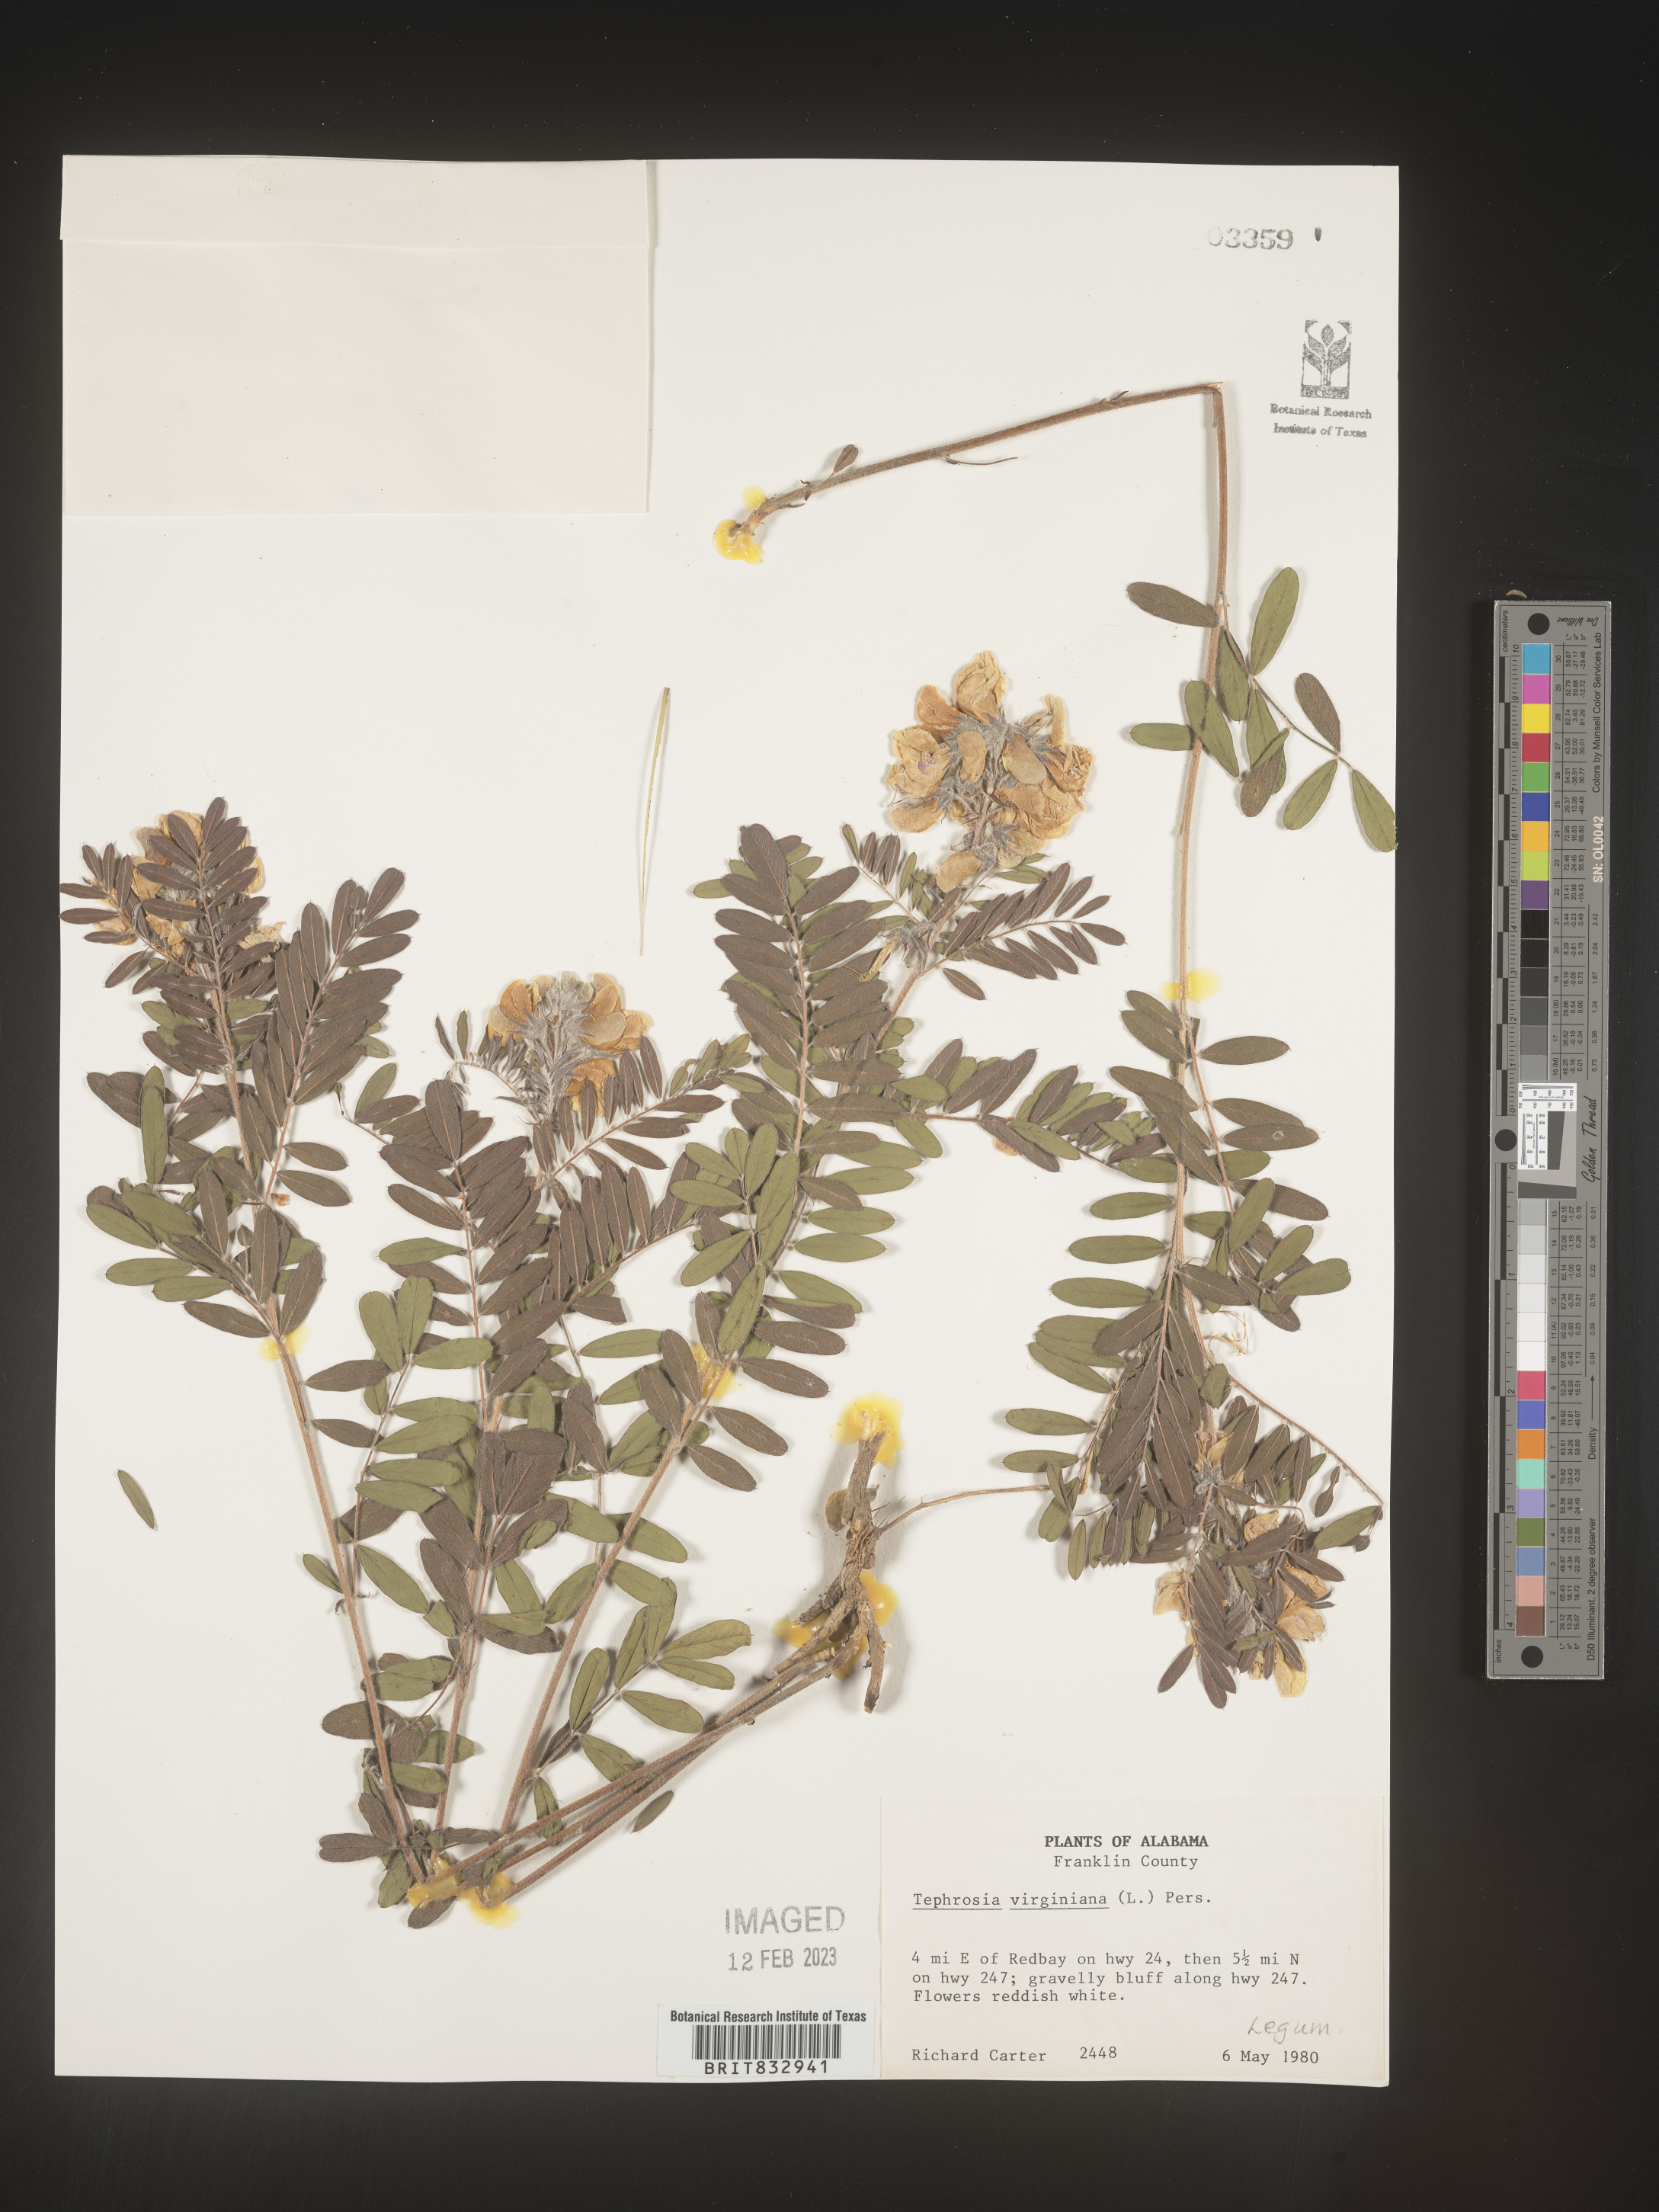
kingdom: Plantae
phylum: Tracheophyta
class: Magnoliopsida
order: Fabales
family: Fabaceae
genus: Tephrosia
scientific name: Tephrosia virginiana
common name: Rabbit-pea
